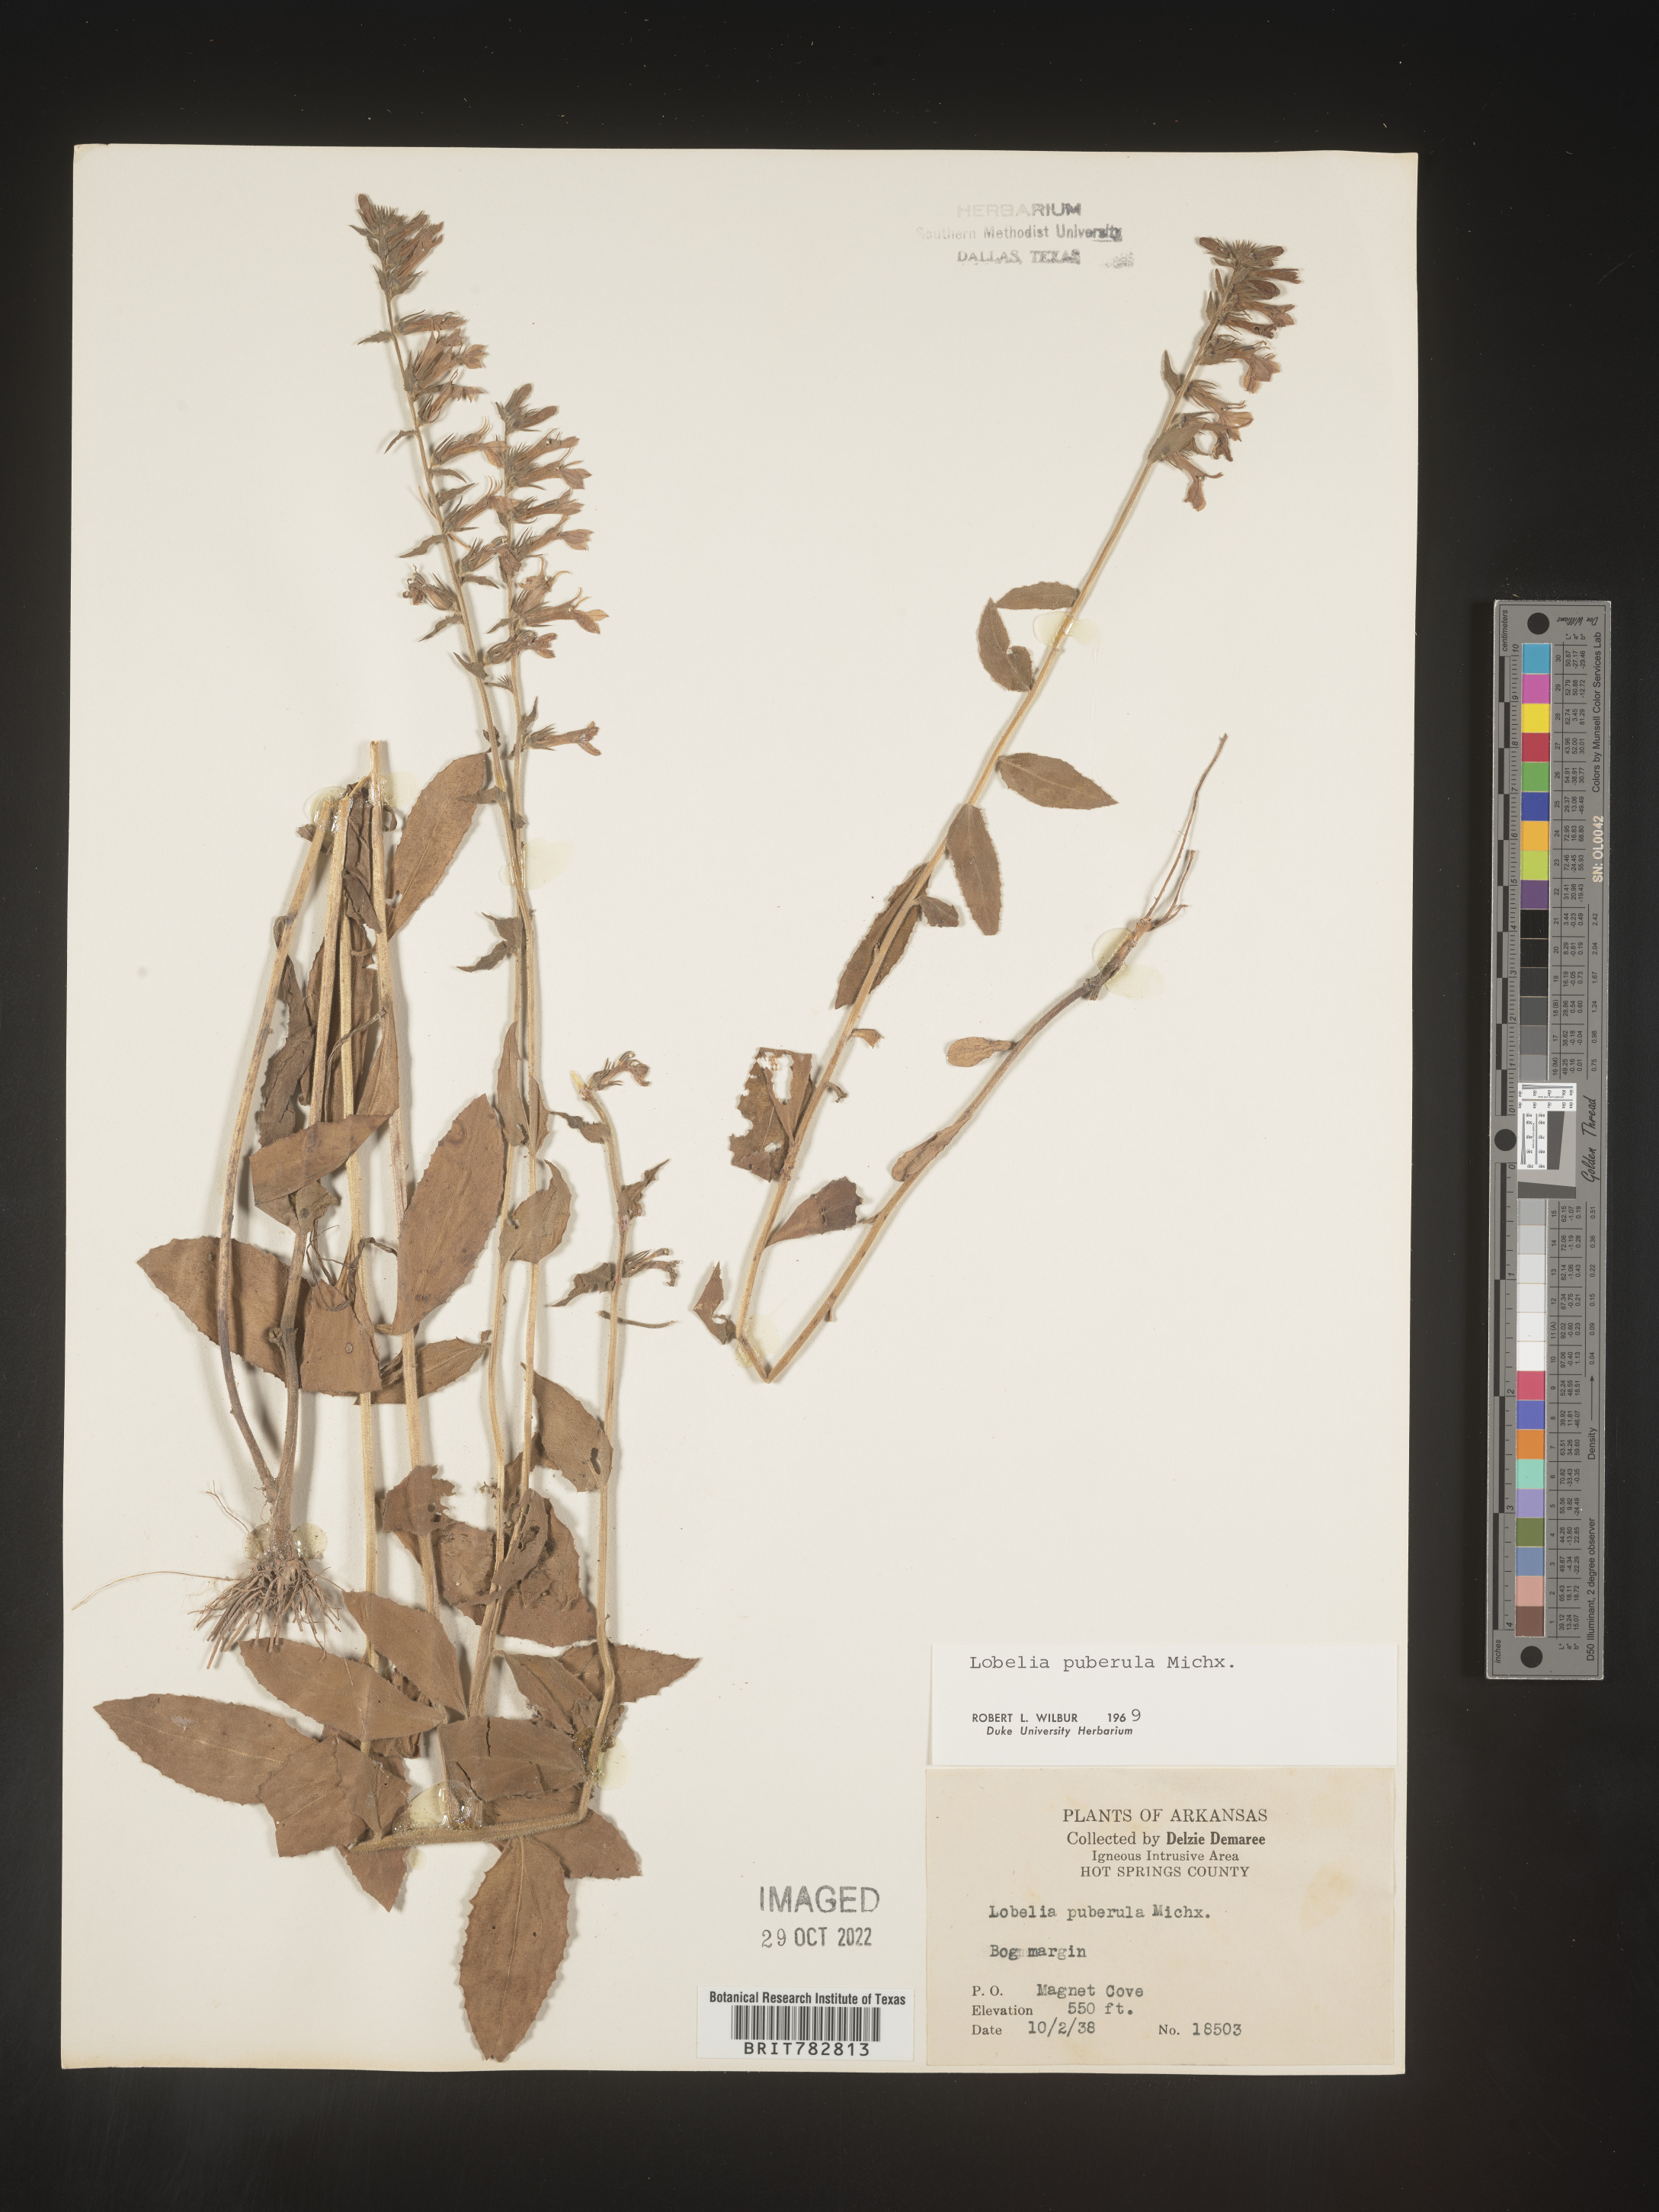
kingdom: Plantae
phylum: Tracheophyta
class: Magnoliopsida
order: Asterales
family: Campanulaceae
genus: Lobelia
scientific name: Lobelia puberula
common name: Purple dewdrop
